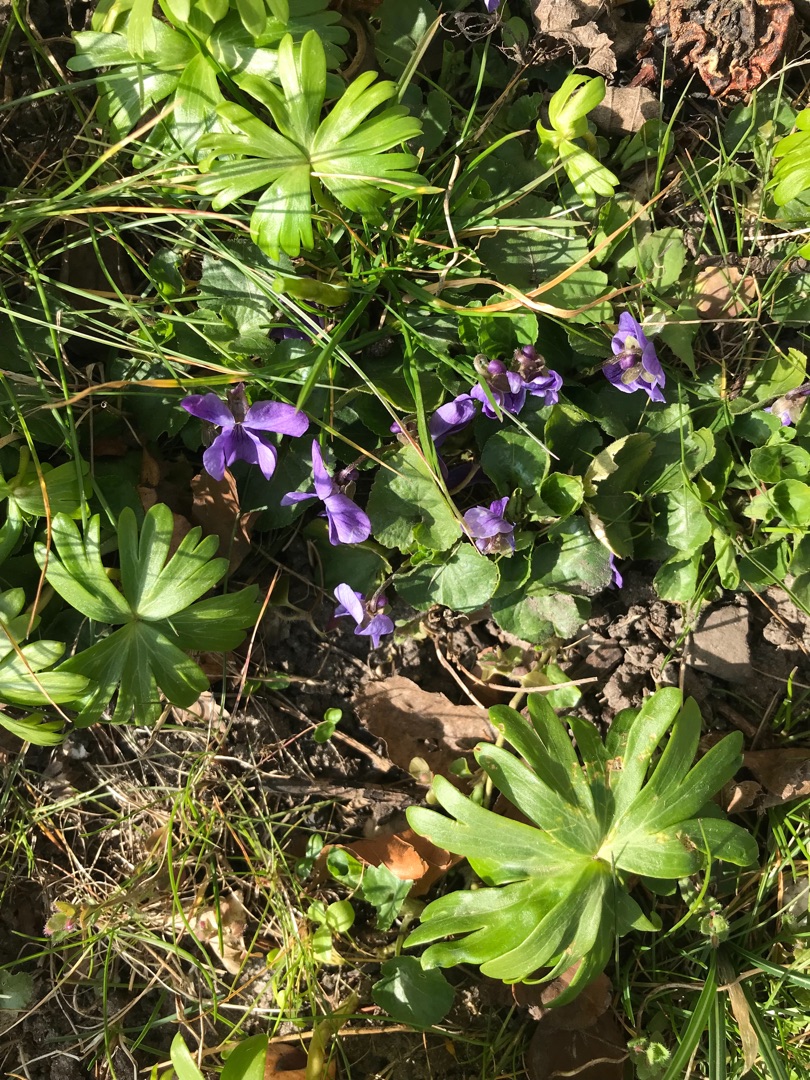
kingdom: Plantae
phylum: Tracheophyta
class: Magnoliopsida
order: Malpighiales
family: Violaceae
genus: Viola
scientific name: Viola odorata
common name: Marts-viol
